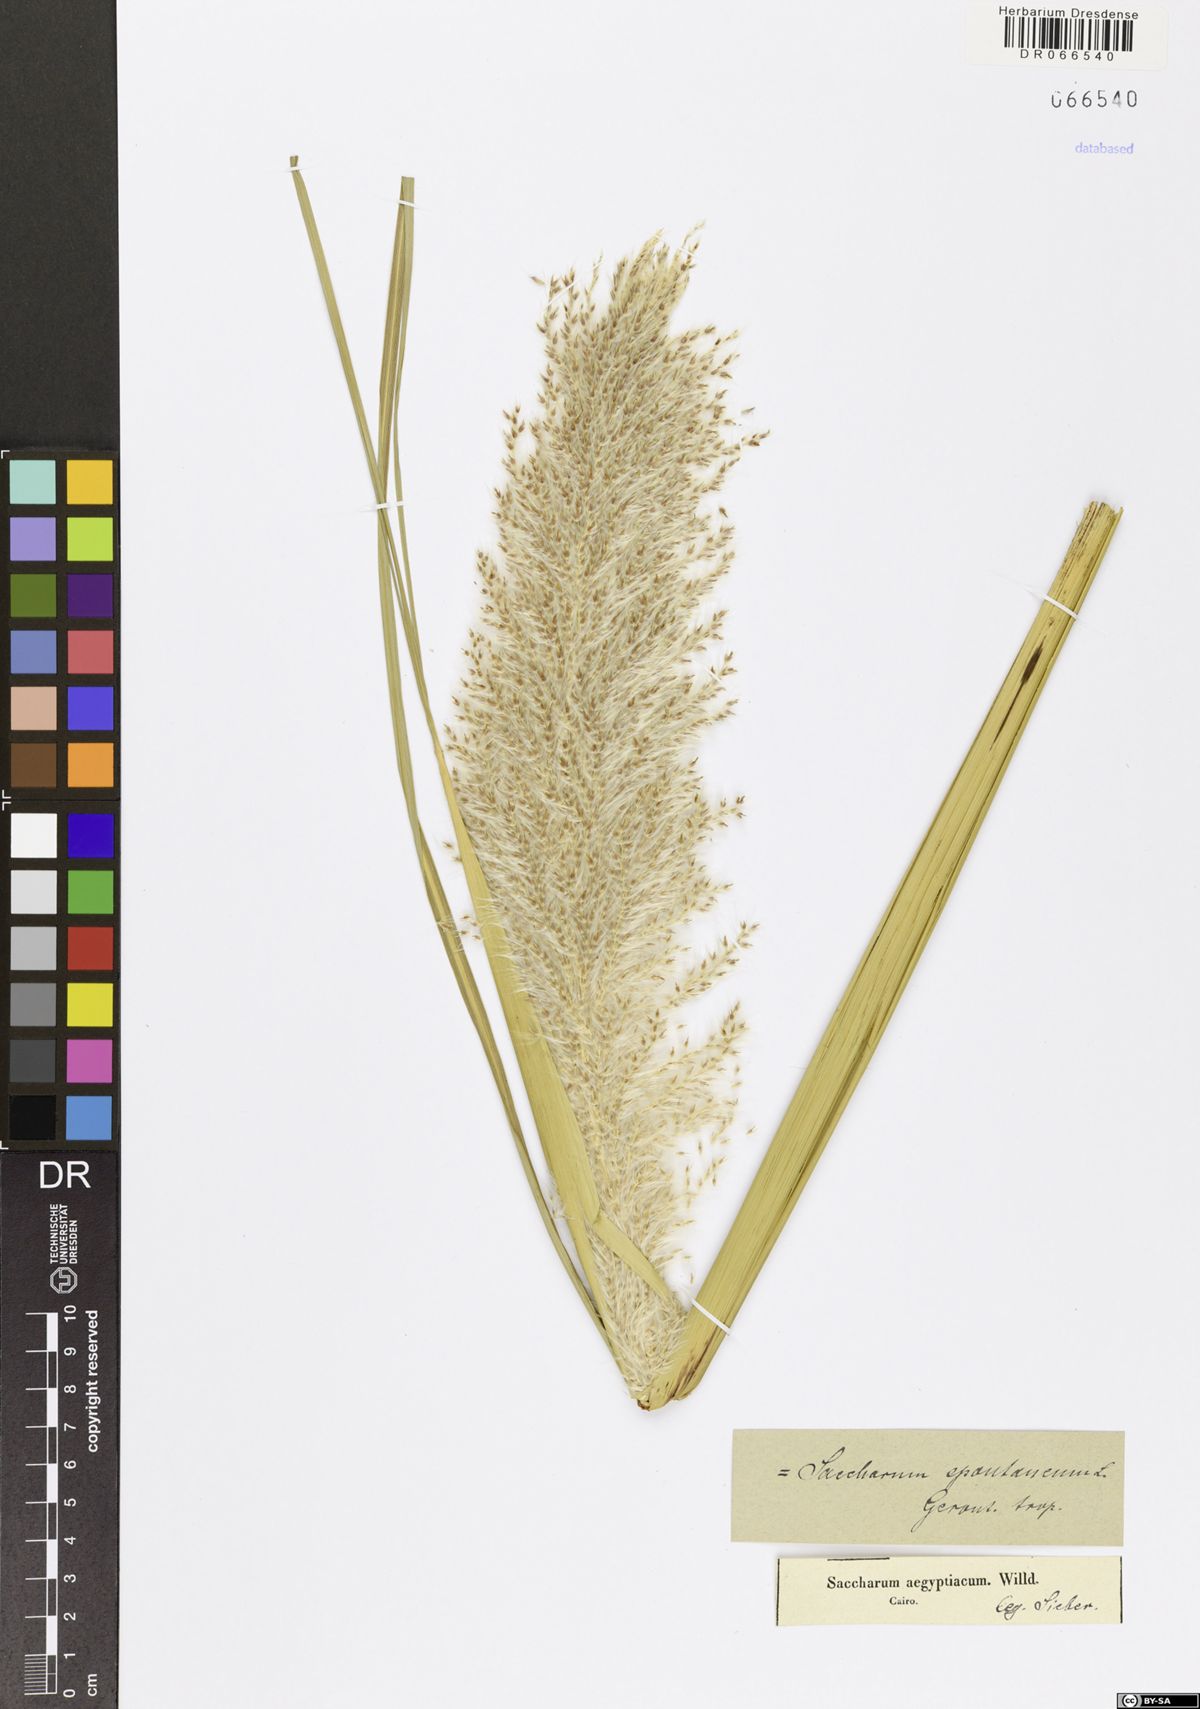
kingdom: Plantae
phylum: Tracheophyta
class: Liliopsida
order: Poales
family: Poaceae
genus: Saccharum
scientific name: Saccharum spontaneum
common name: Wild sugarcane
